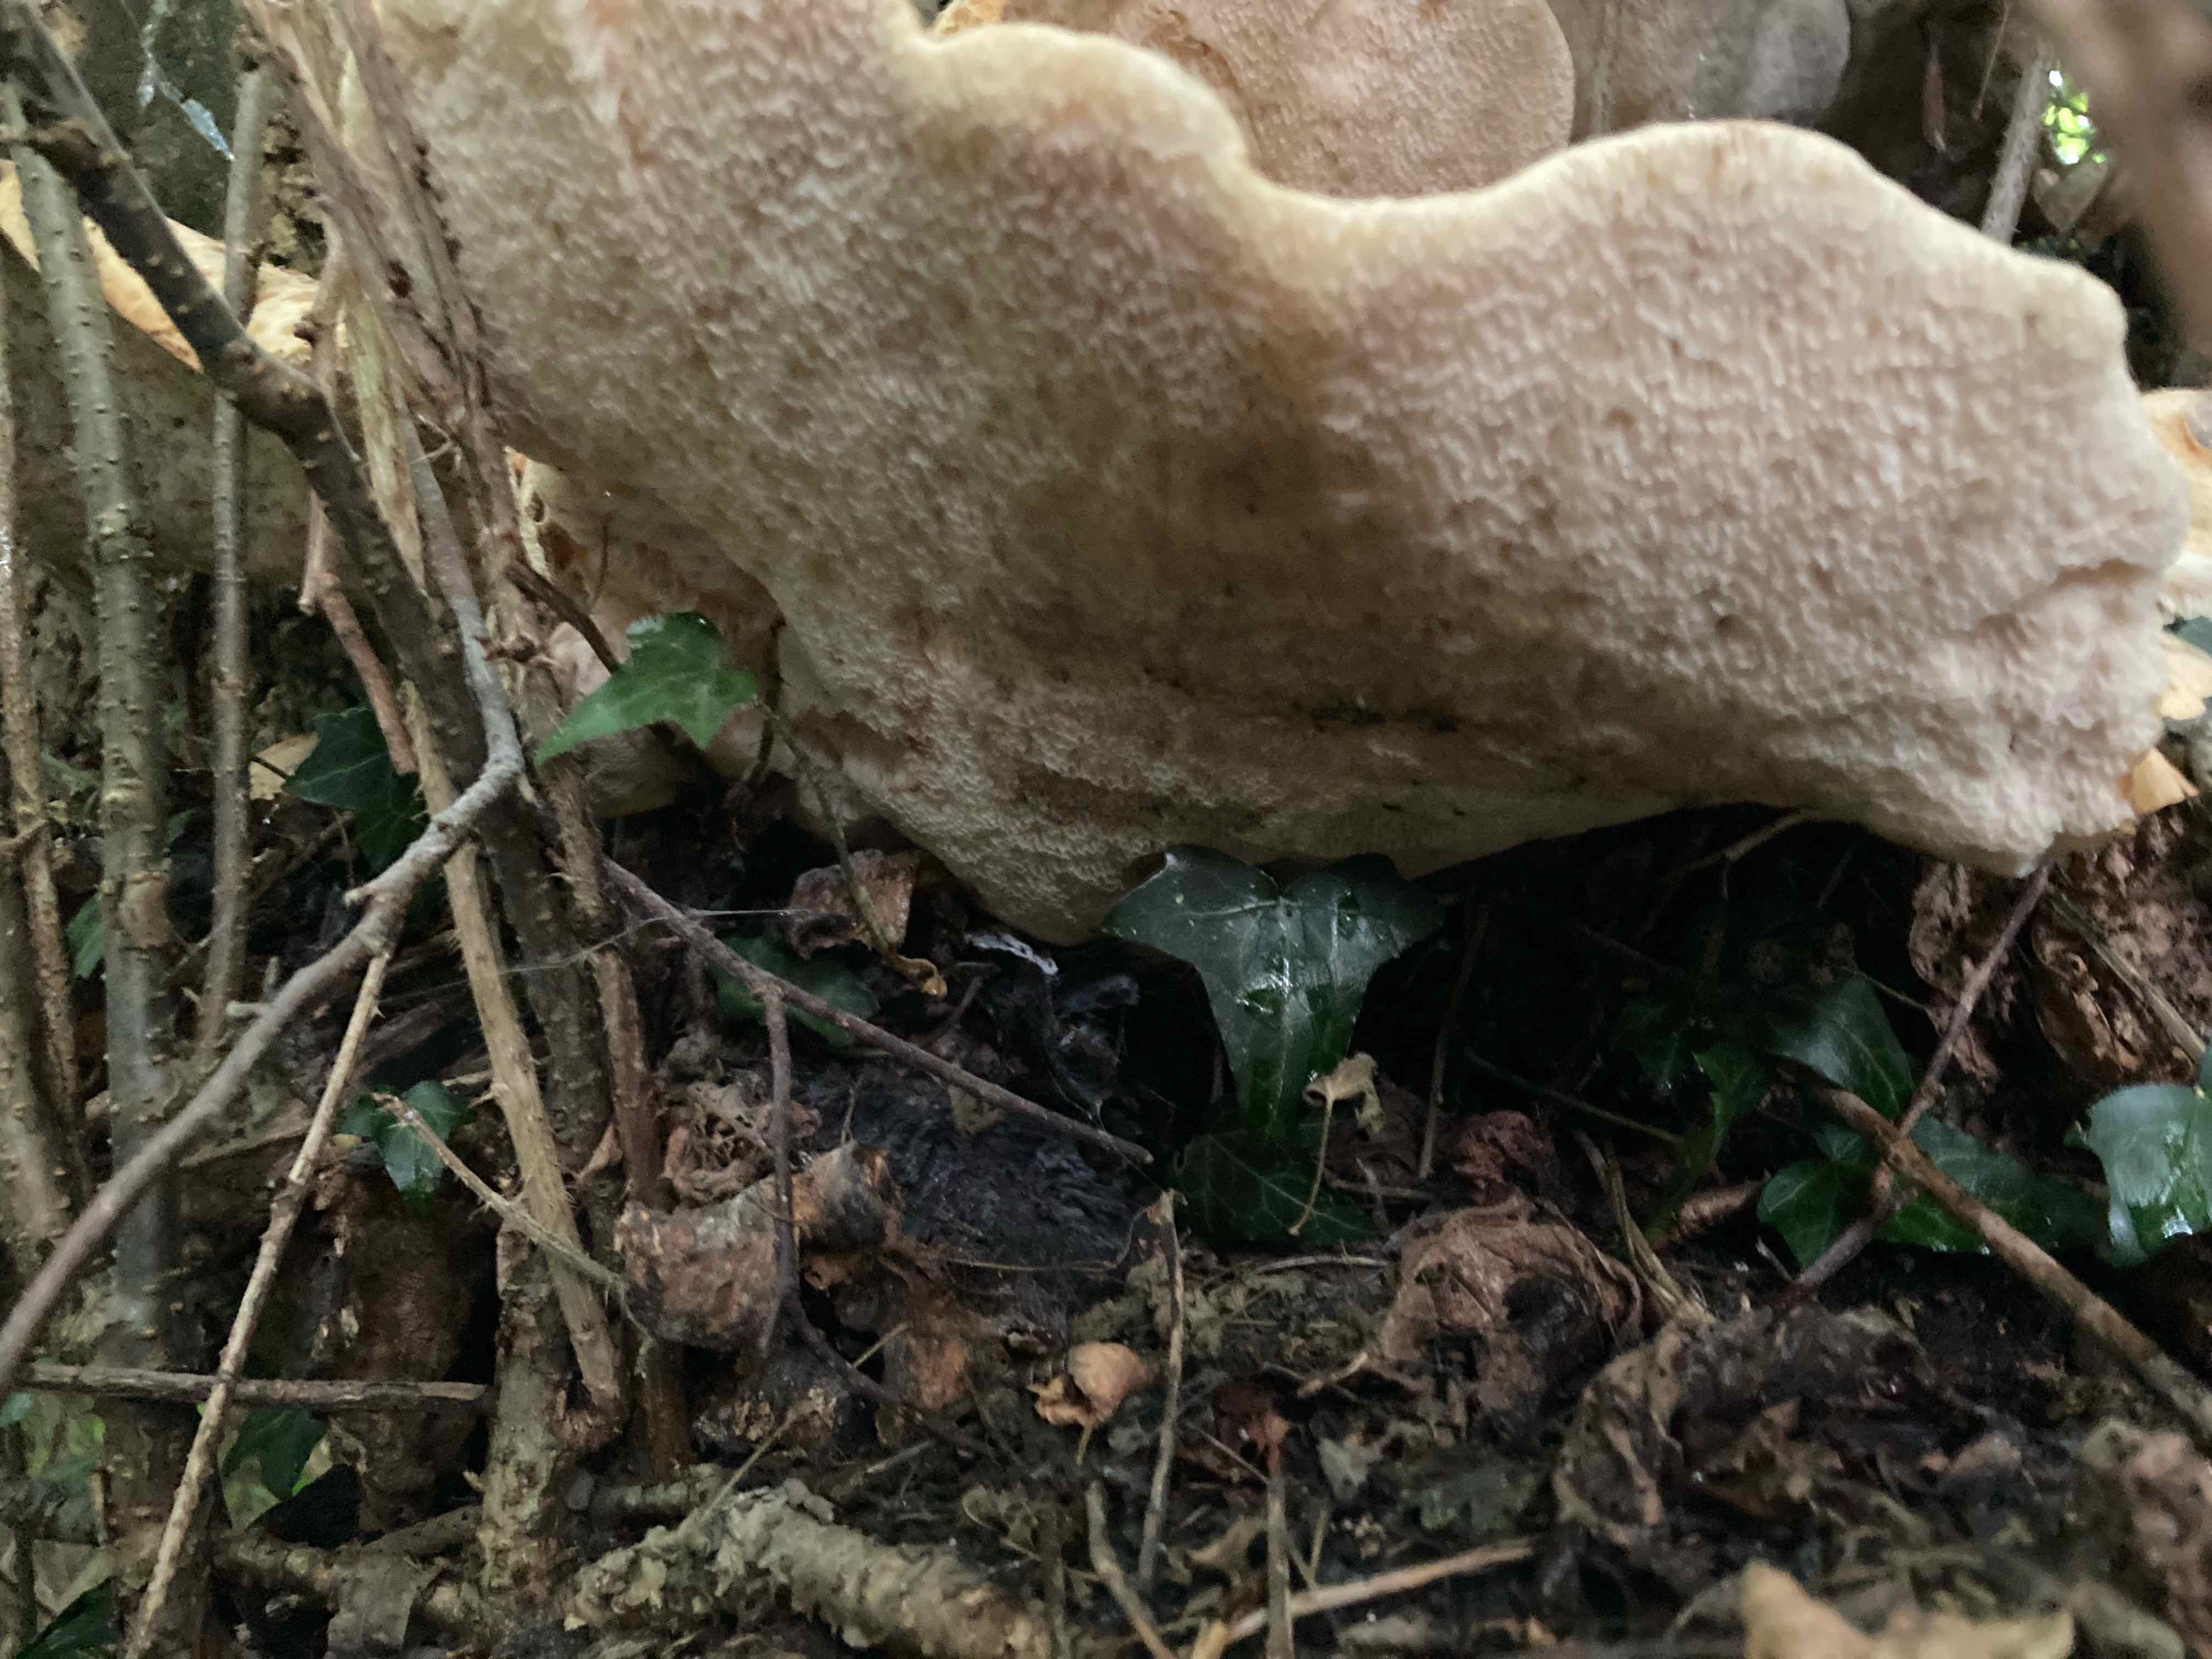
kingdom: Fungi
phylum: Basidiomycota
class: Agaricomycetes
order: Polyporales
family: Polyporaceae
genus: Cerioporus
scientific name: Cerioporus squamosus
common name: skællet stilkporesvamp
